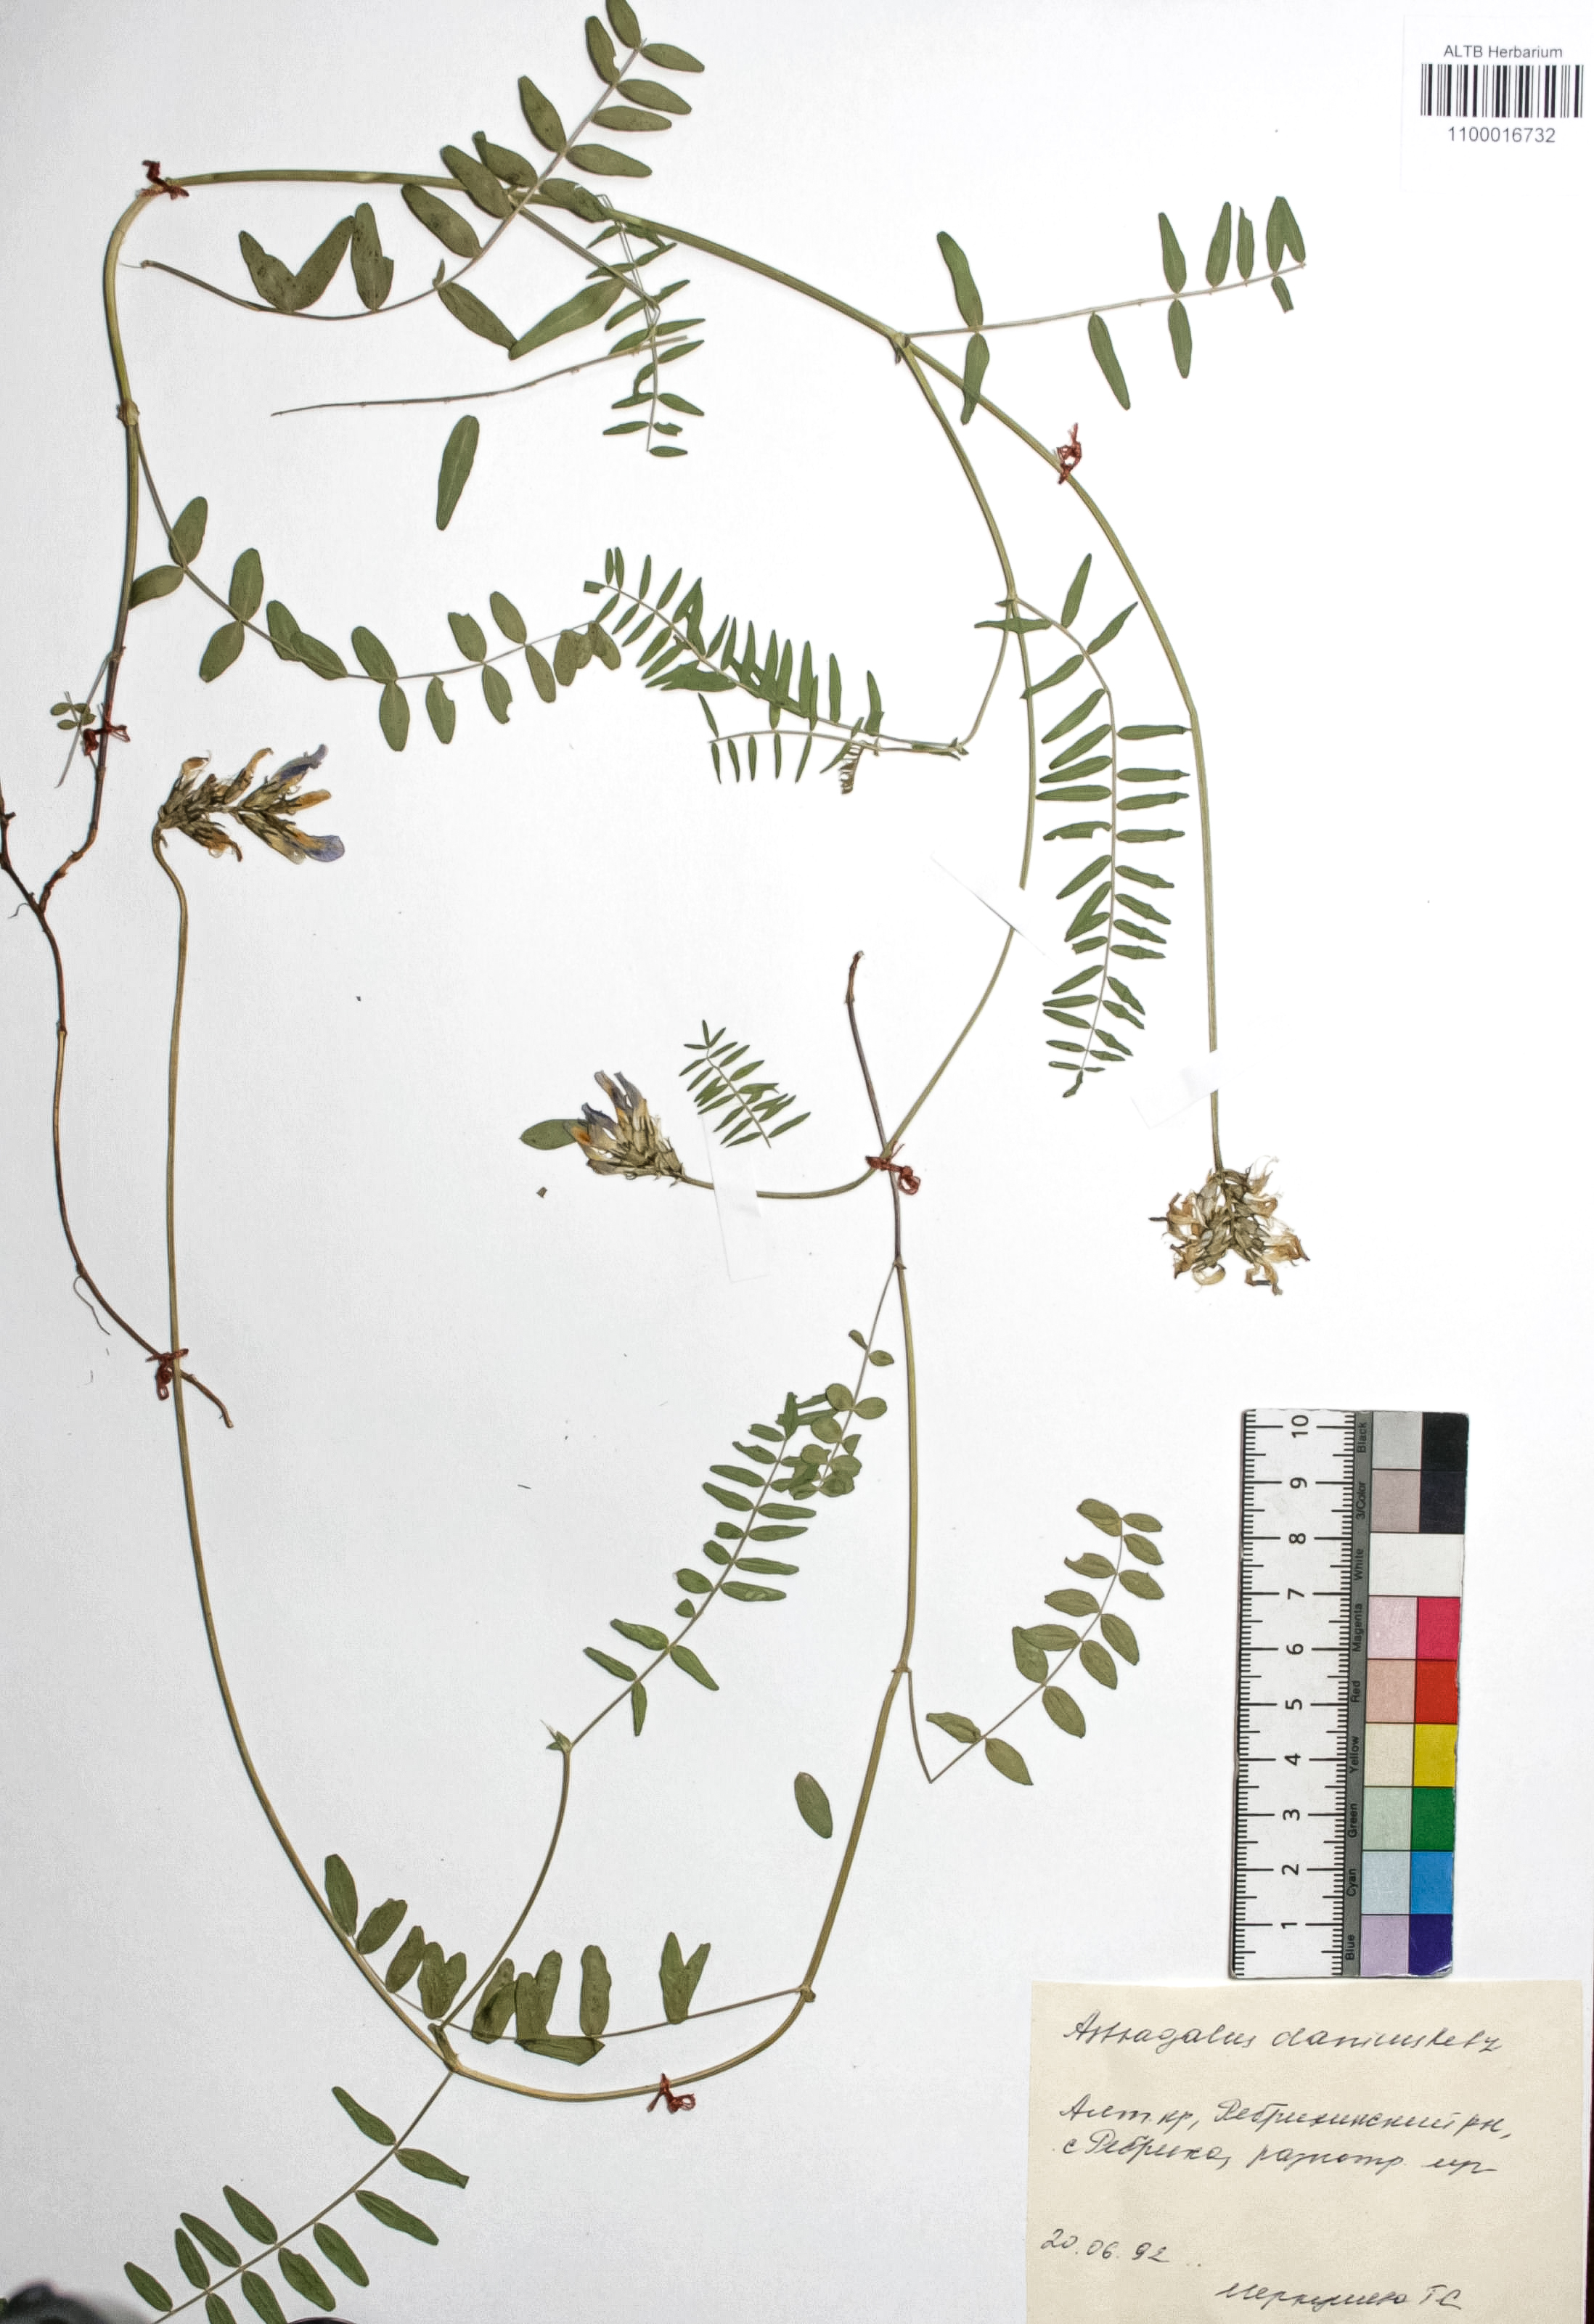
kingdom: Plantae
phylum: Tracheophyta
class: Magnoliopsida
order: Fabales
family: Fabaceae
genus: Astragalus
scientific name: Astragalus danicus
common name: Purple milk-vetch
